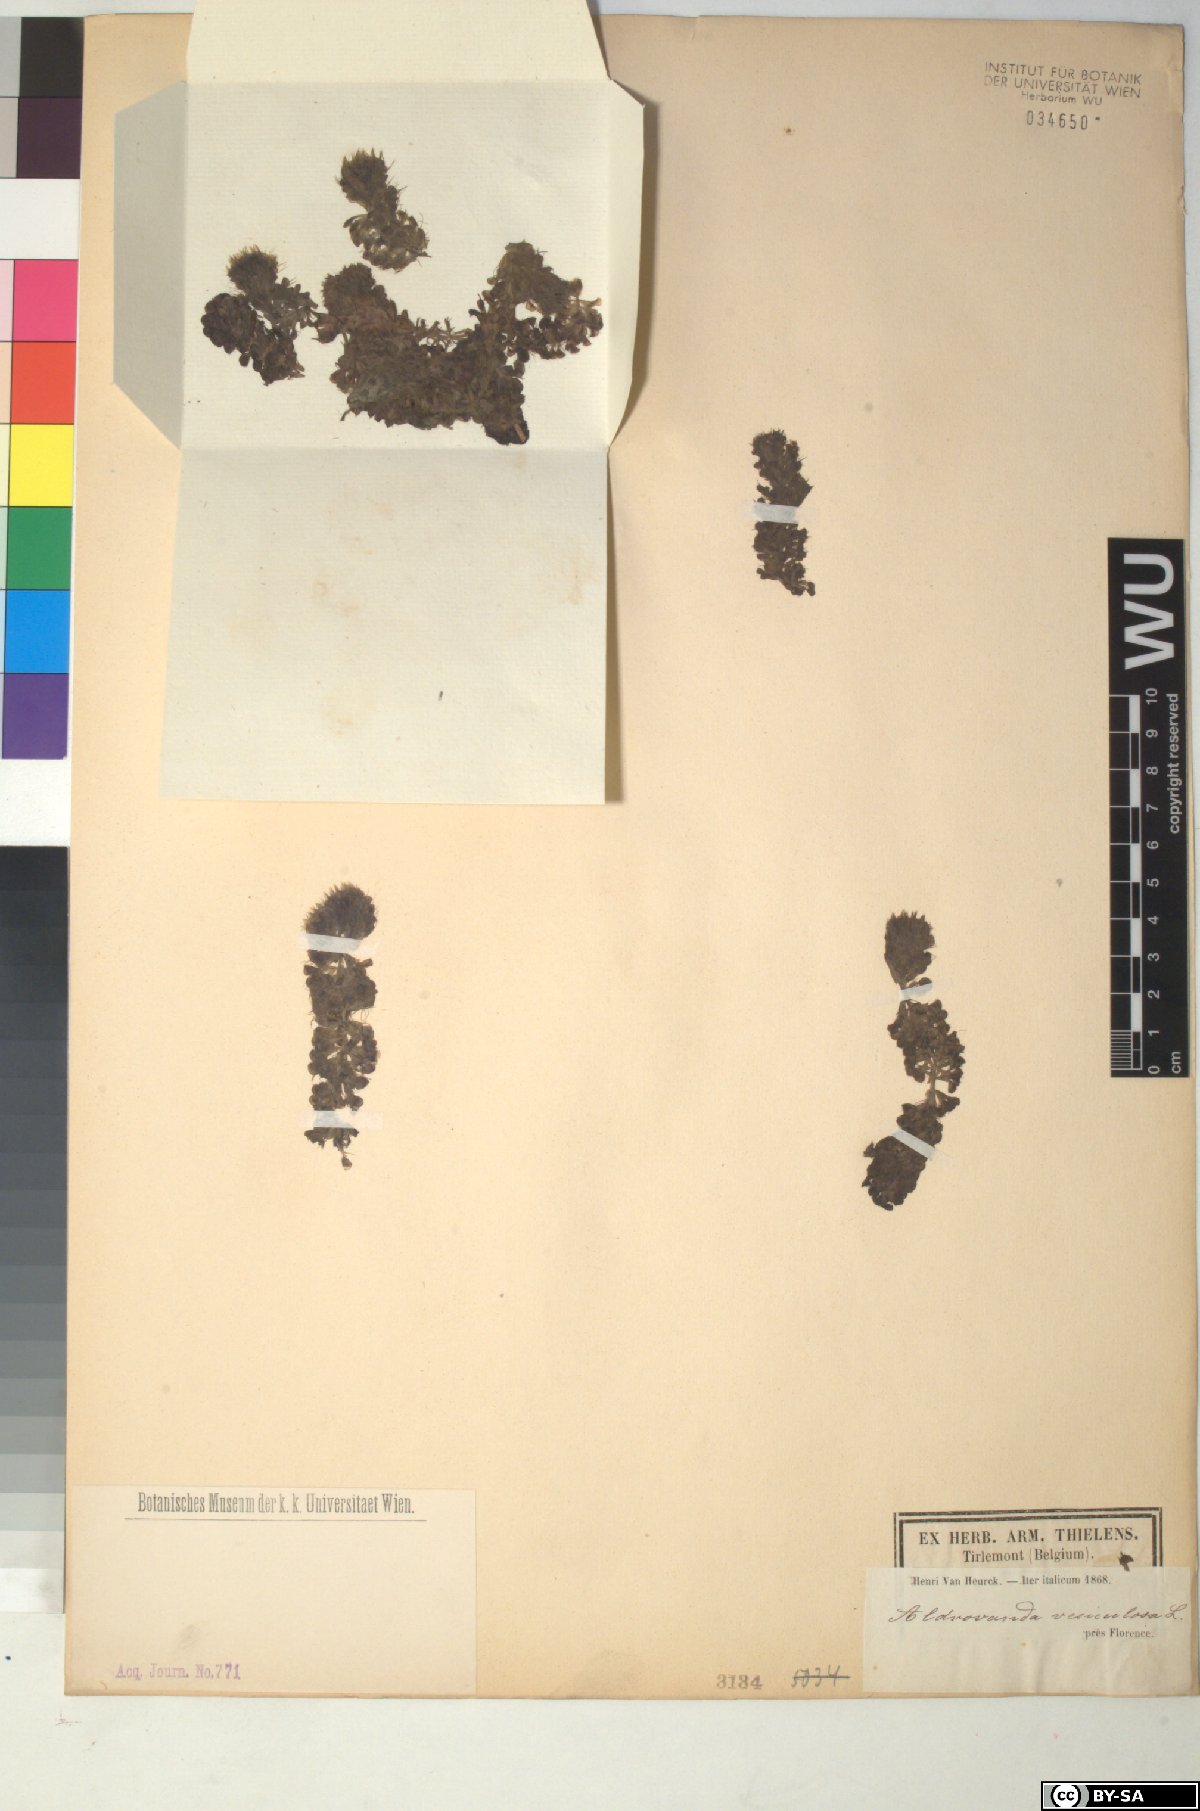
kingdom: Plantae
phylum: Tracheophyta
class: Magnoliopsida
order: Caryophyllales
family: Droseraceae
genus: Aldrovanda
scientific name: Aldrovanda vesiculosa
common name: Waterwheel plant
